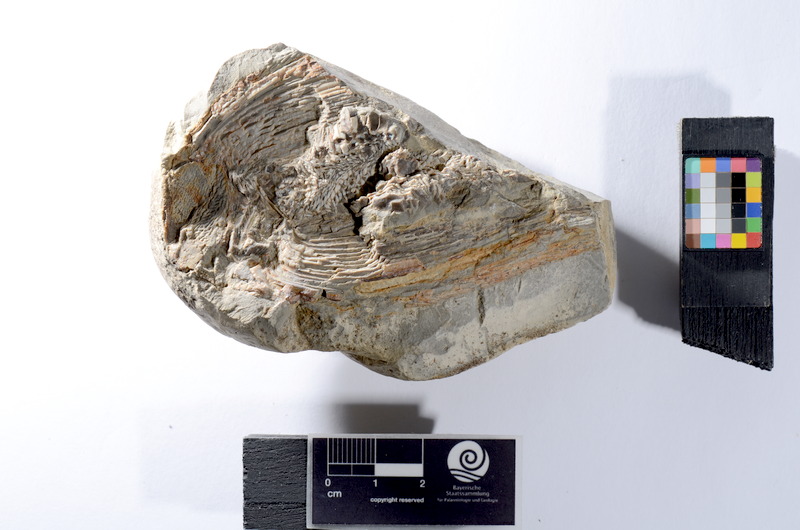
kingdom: Animalia
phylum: Chordata
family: Colobodontidae
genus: Colobodus
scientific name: Colobodus koenigi
